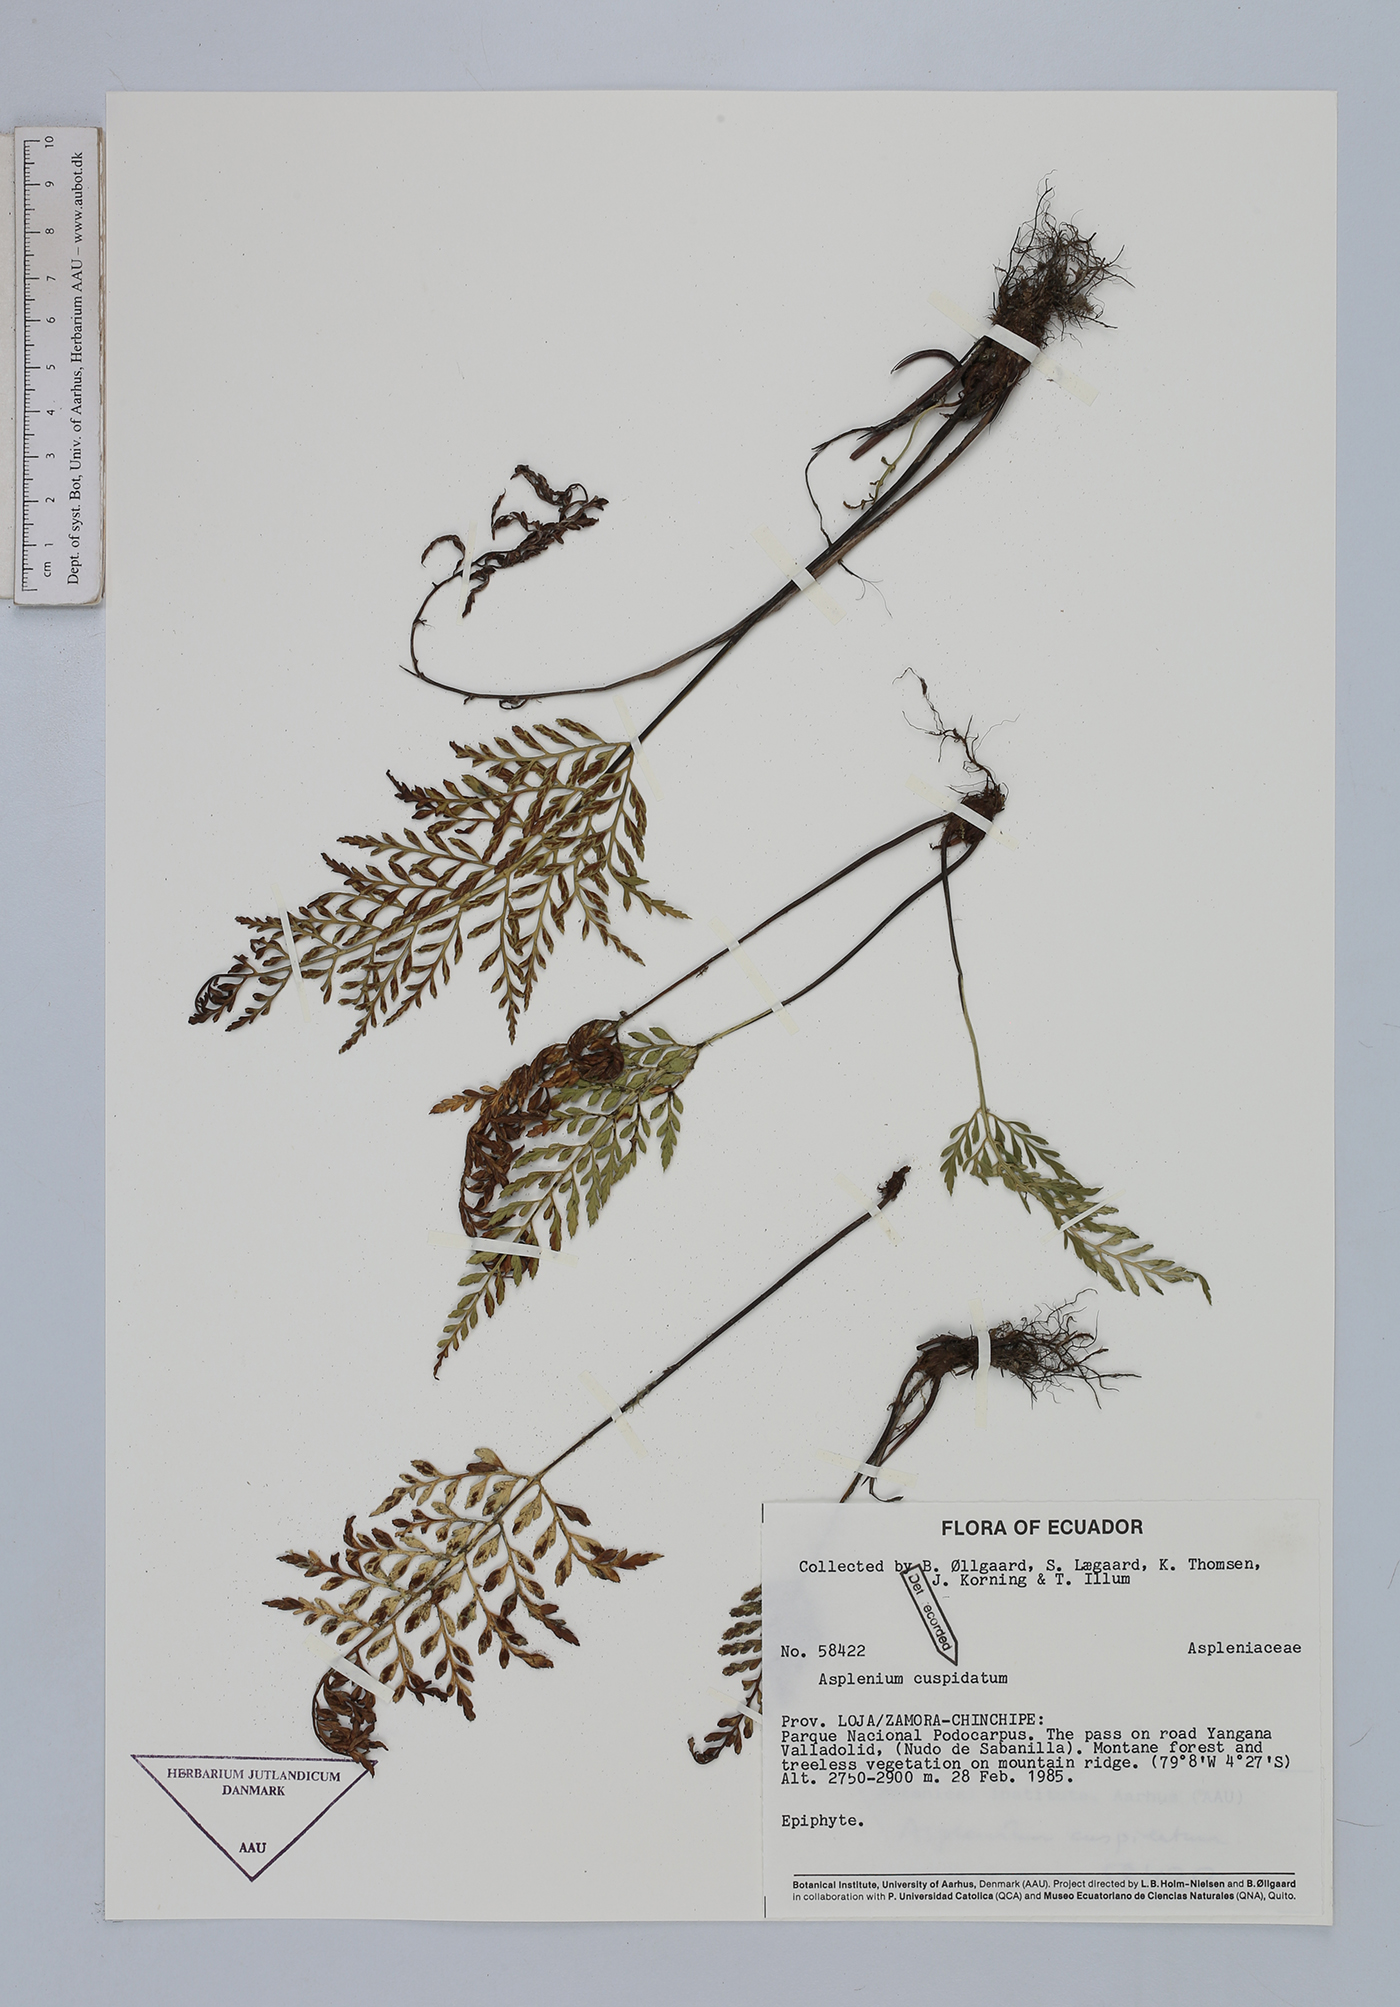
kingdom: Plantae
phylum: Tracheophyta
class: Polypodiopsida
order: Polypodiales
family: Aspleniaceae
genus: Asplenium
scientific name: Asplenium cuspidatum
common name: Eared spleenwort
